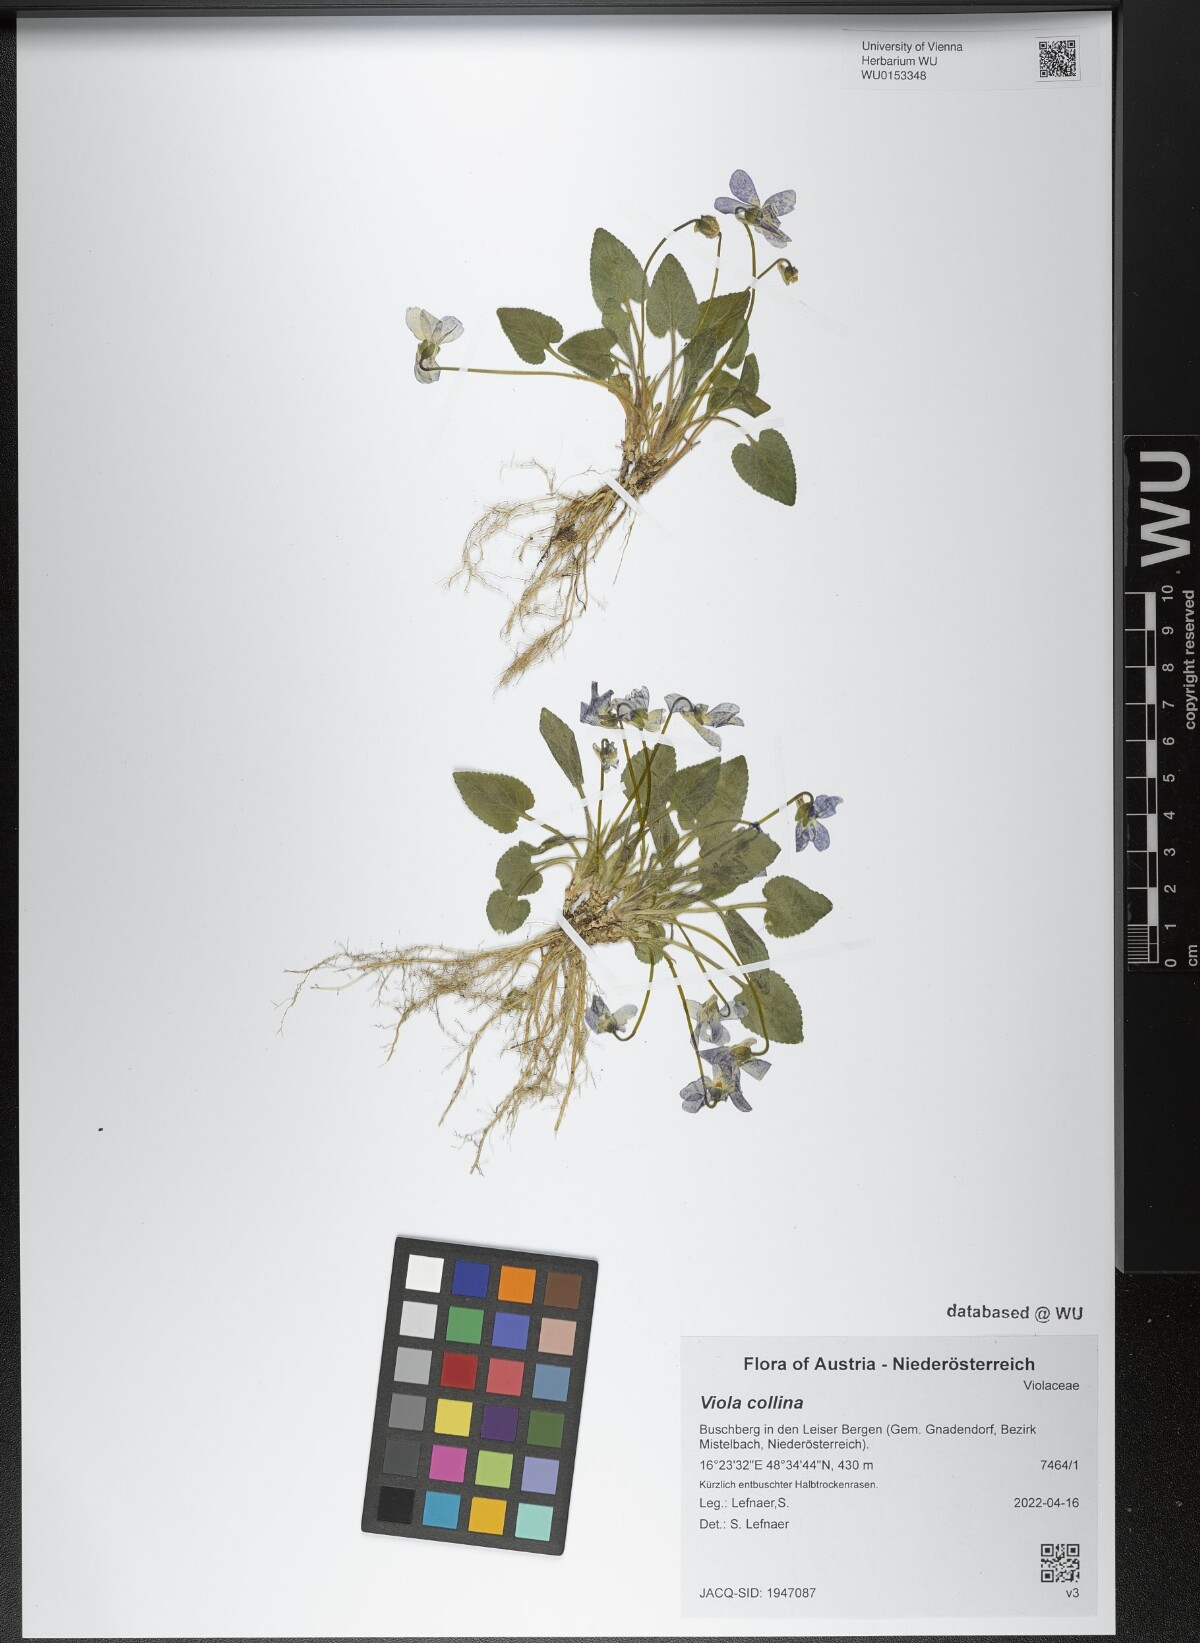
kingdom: Plantae
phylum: Tracheophyta
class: Magnoliopsida
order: Malpighiales
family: Violaceae
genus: Viola
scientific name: Viola collina
